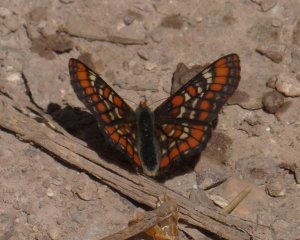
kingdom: Animalia
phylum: Arthropoda
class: Insecta
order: Lepidoptera
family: Nymphalidae
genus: Hypodryas
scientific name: Hypodryas gillettii
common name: Gillette's Checkerspot
